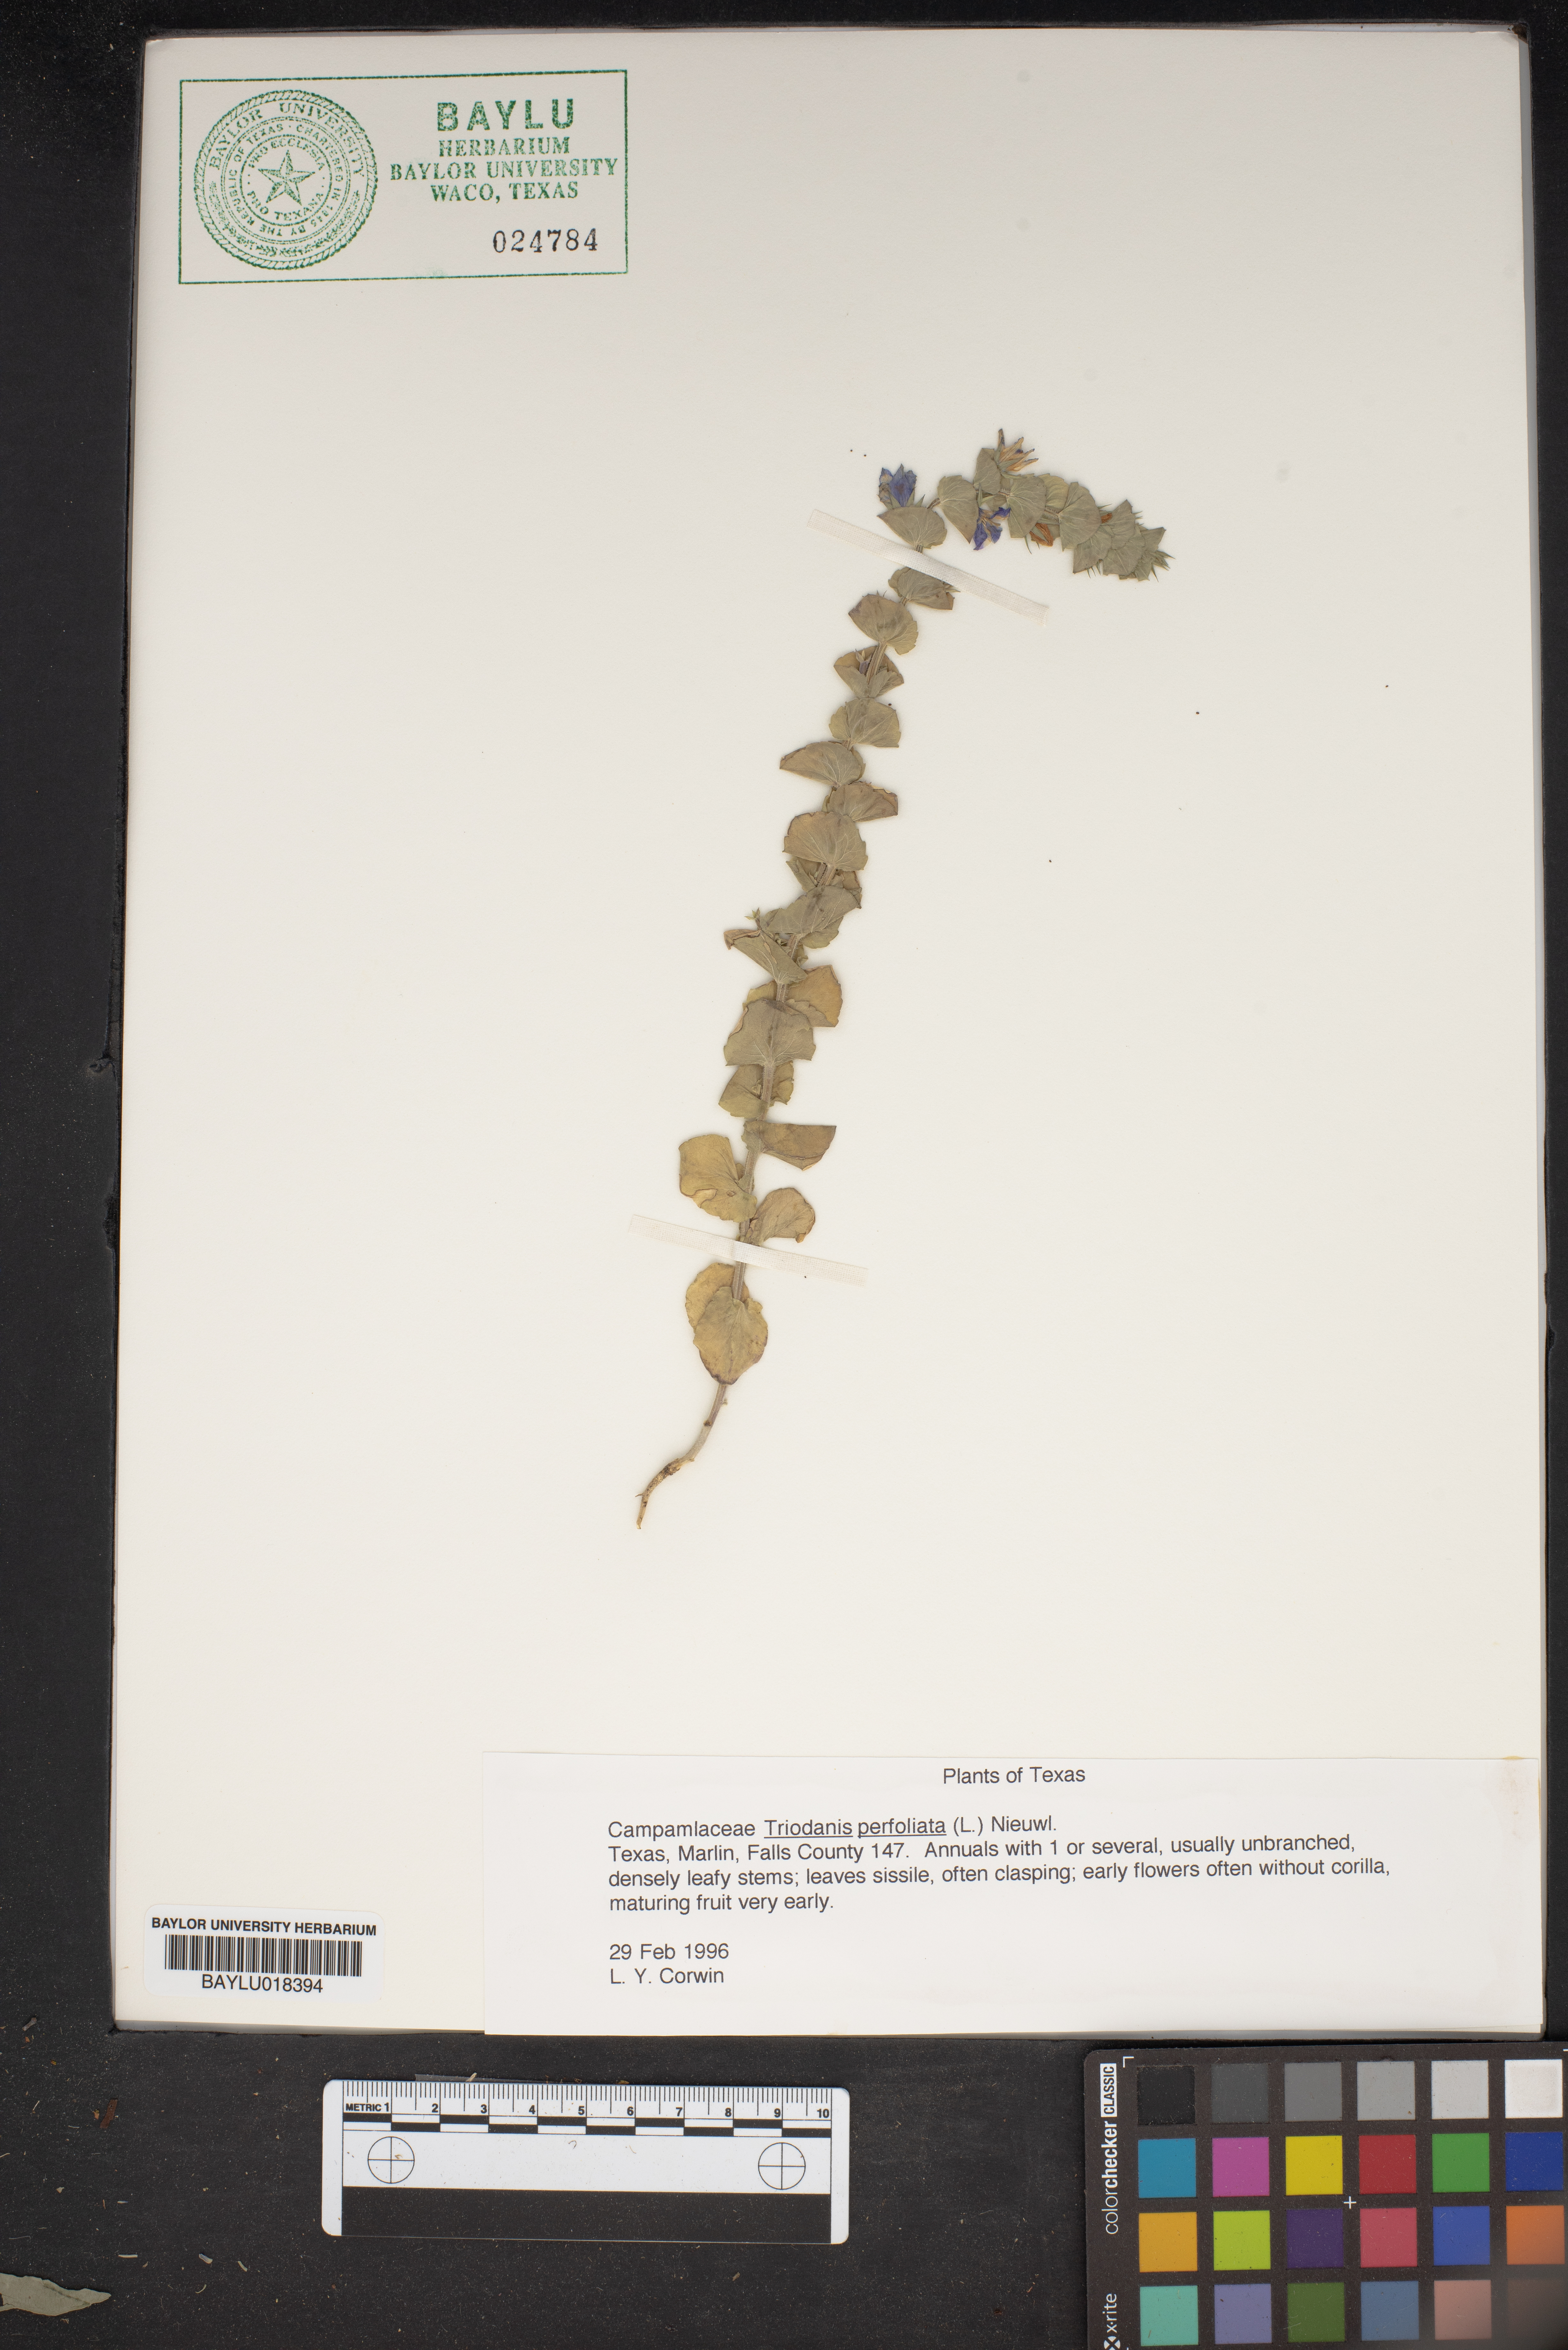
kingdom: Plantae
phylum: Tracheophyta
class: Magnoliopsida
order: Asterales
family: Campanulaceae
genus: Triodanis
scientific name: Triodanis perfoliata
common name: Clasping venus' looking-glass
